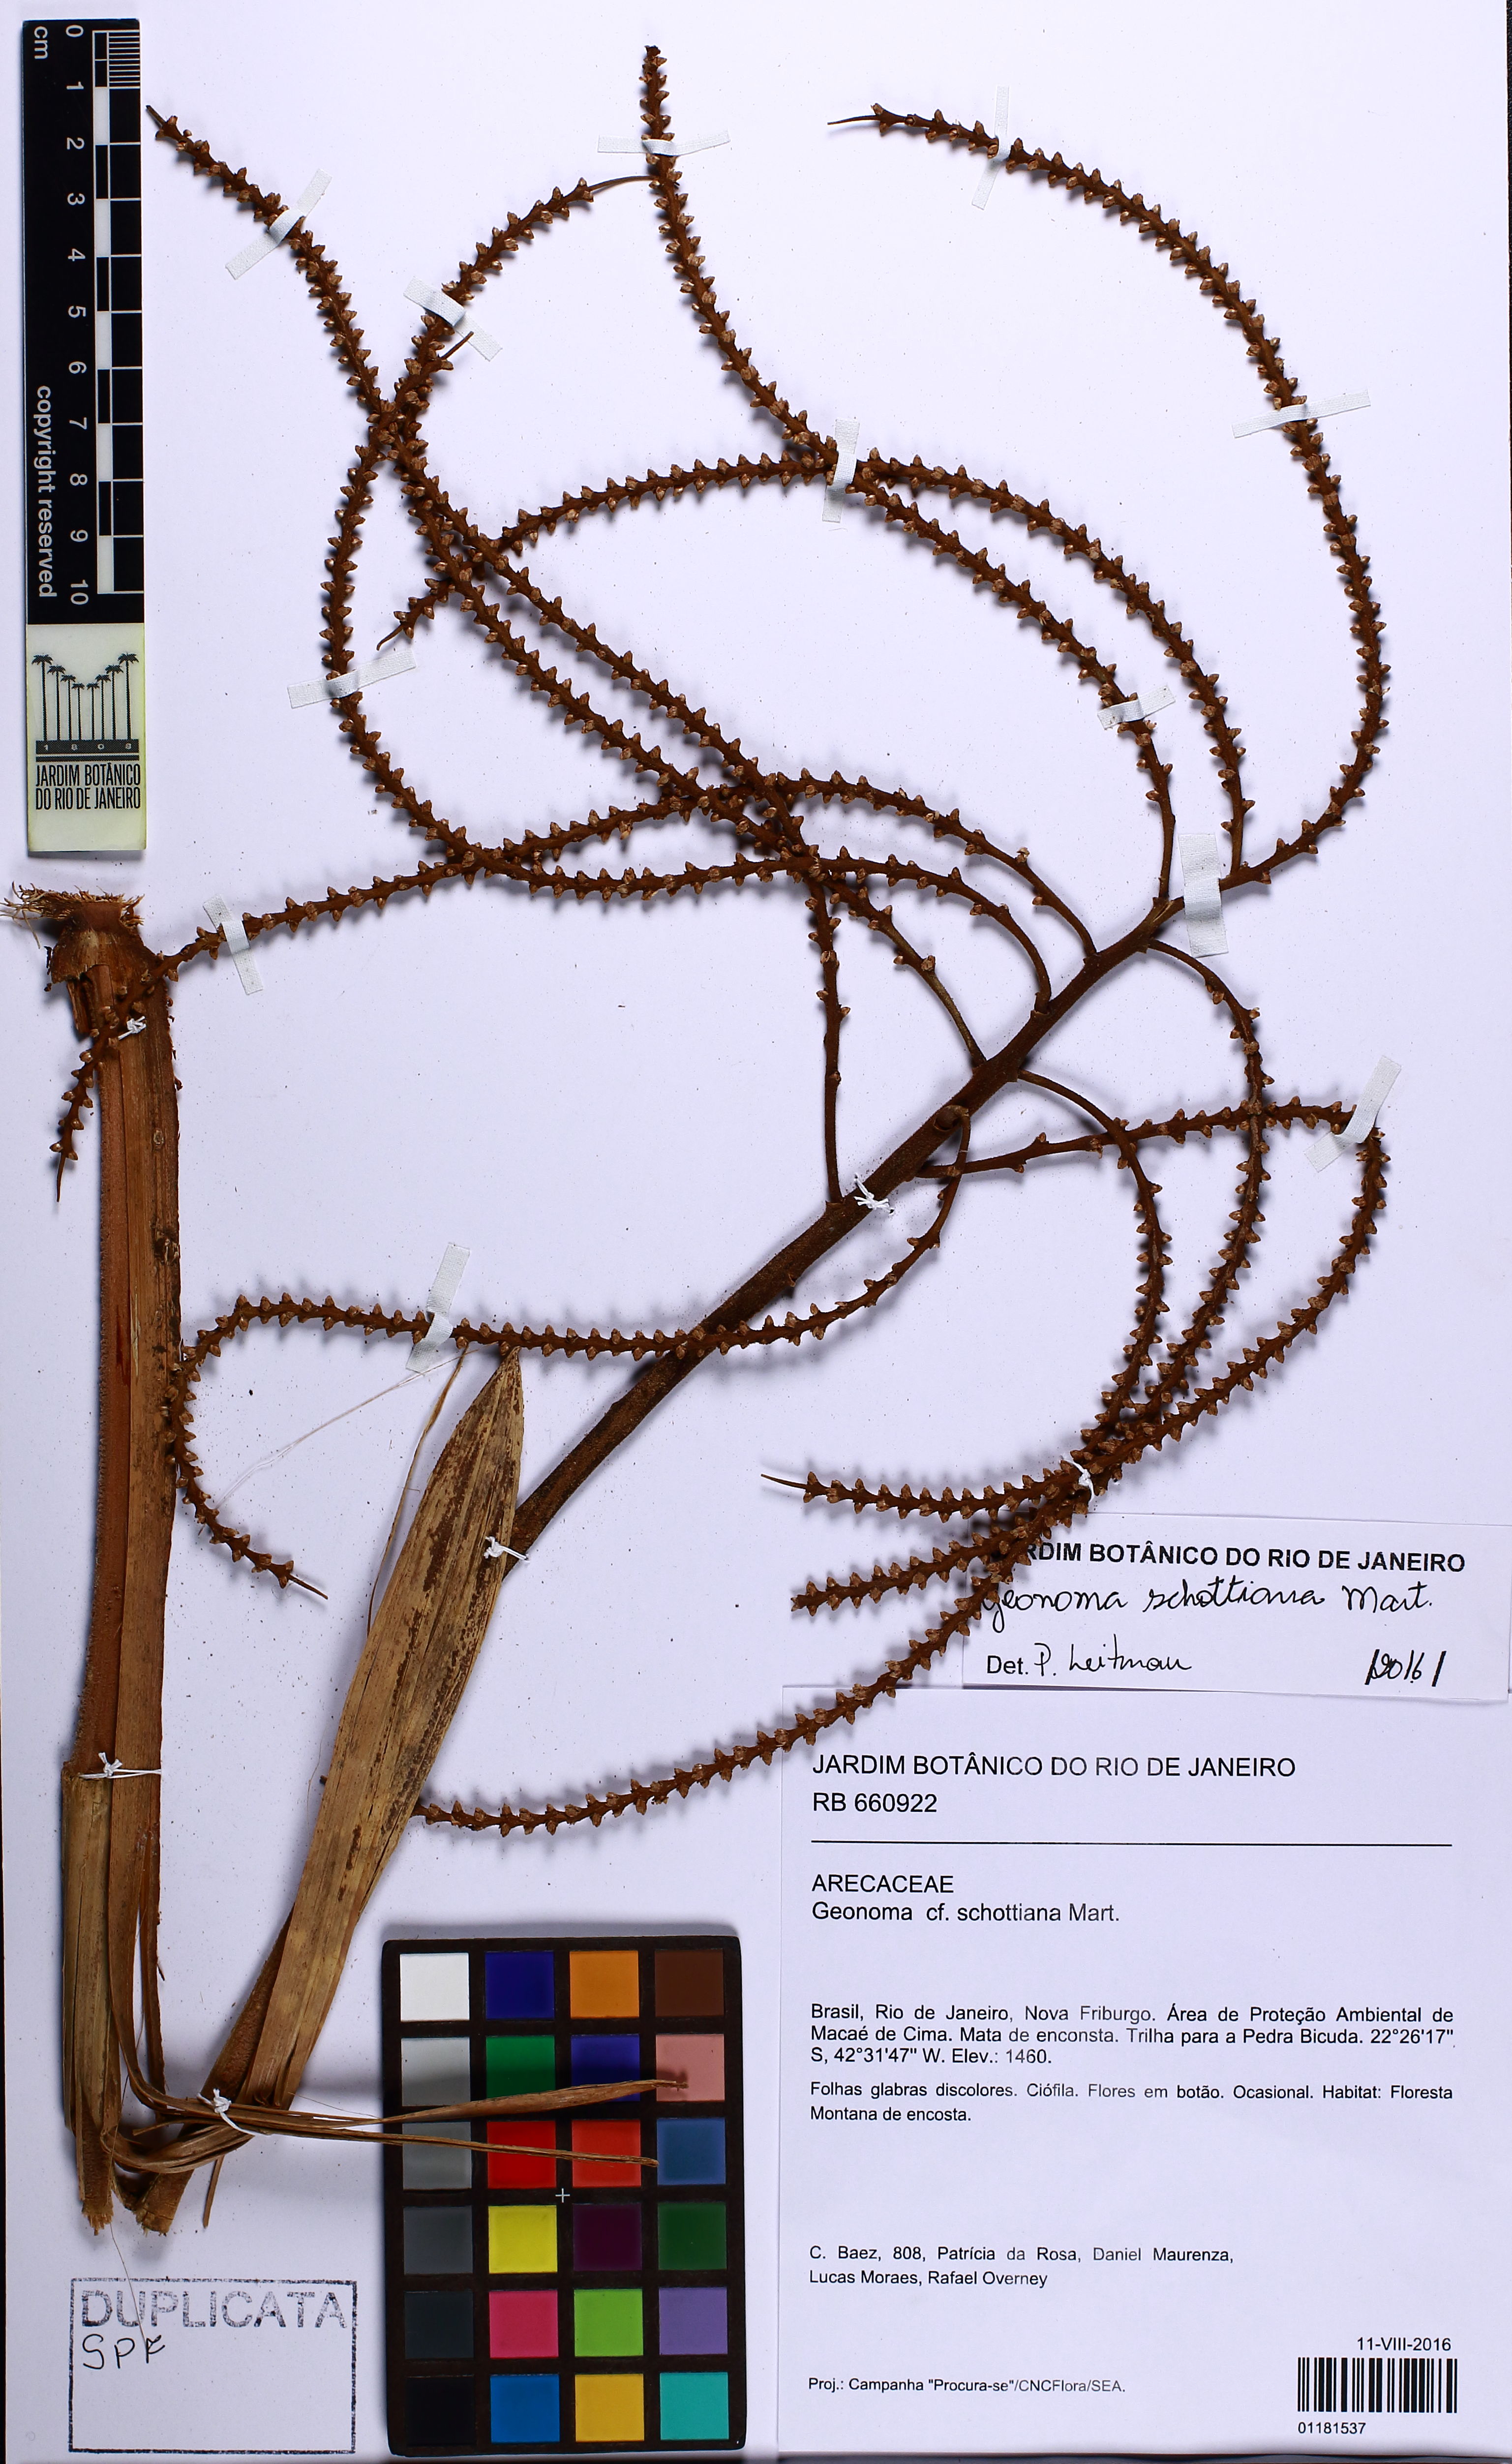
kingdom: Plantae
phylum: Tracheophyta
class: Liliopsida
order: Arecales
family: Arecaceae
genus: Geonoma
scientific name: Geonoma schottiana
